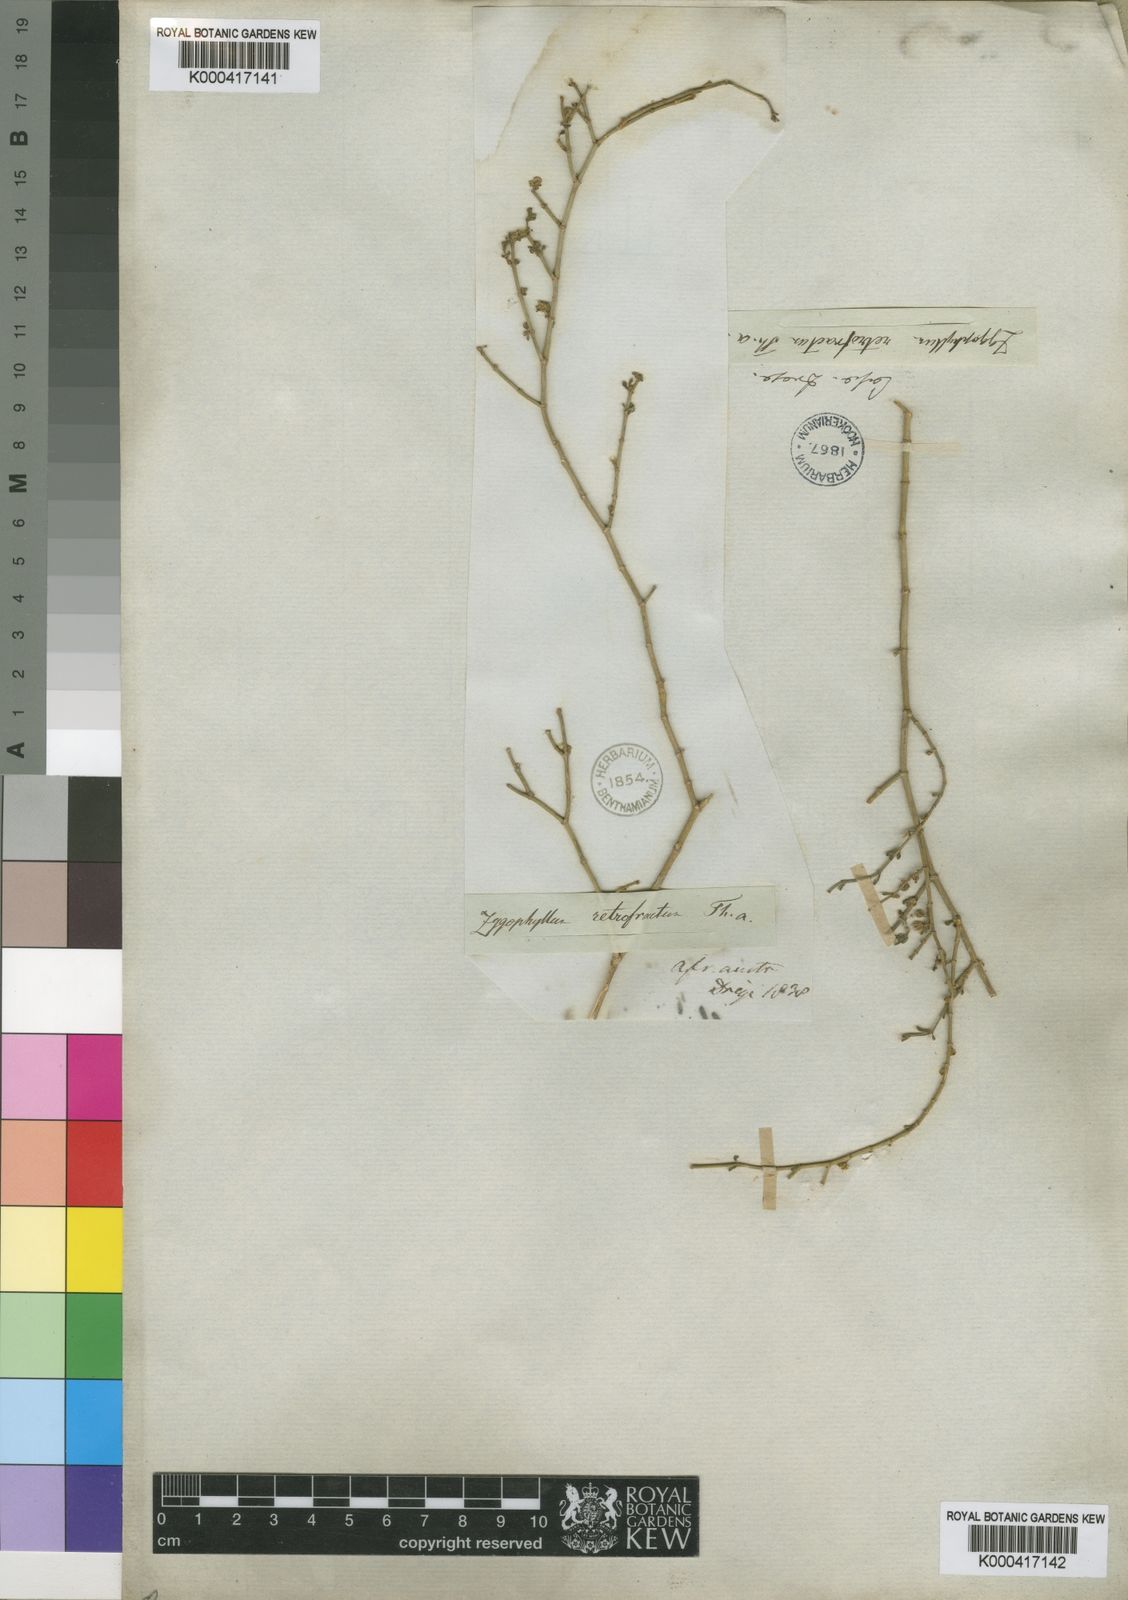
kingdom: Plantae
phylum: Tracheophyta
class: Magnoliopsida
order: Zygophyllales
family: Zygophyllaceae
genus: Tetraena
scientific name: Tetraena retrofracta
